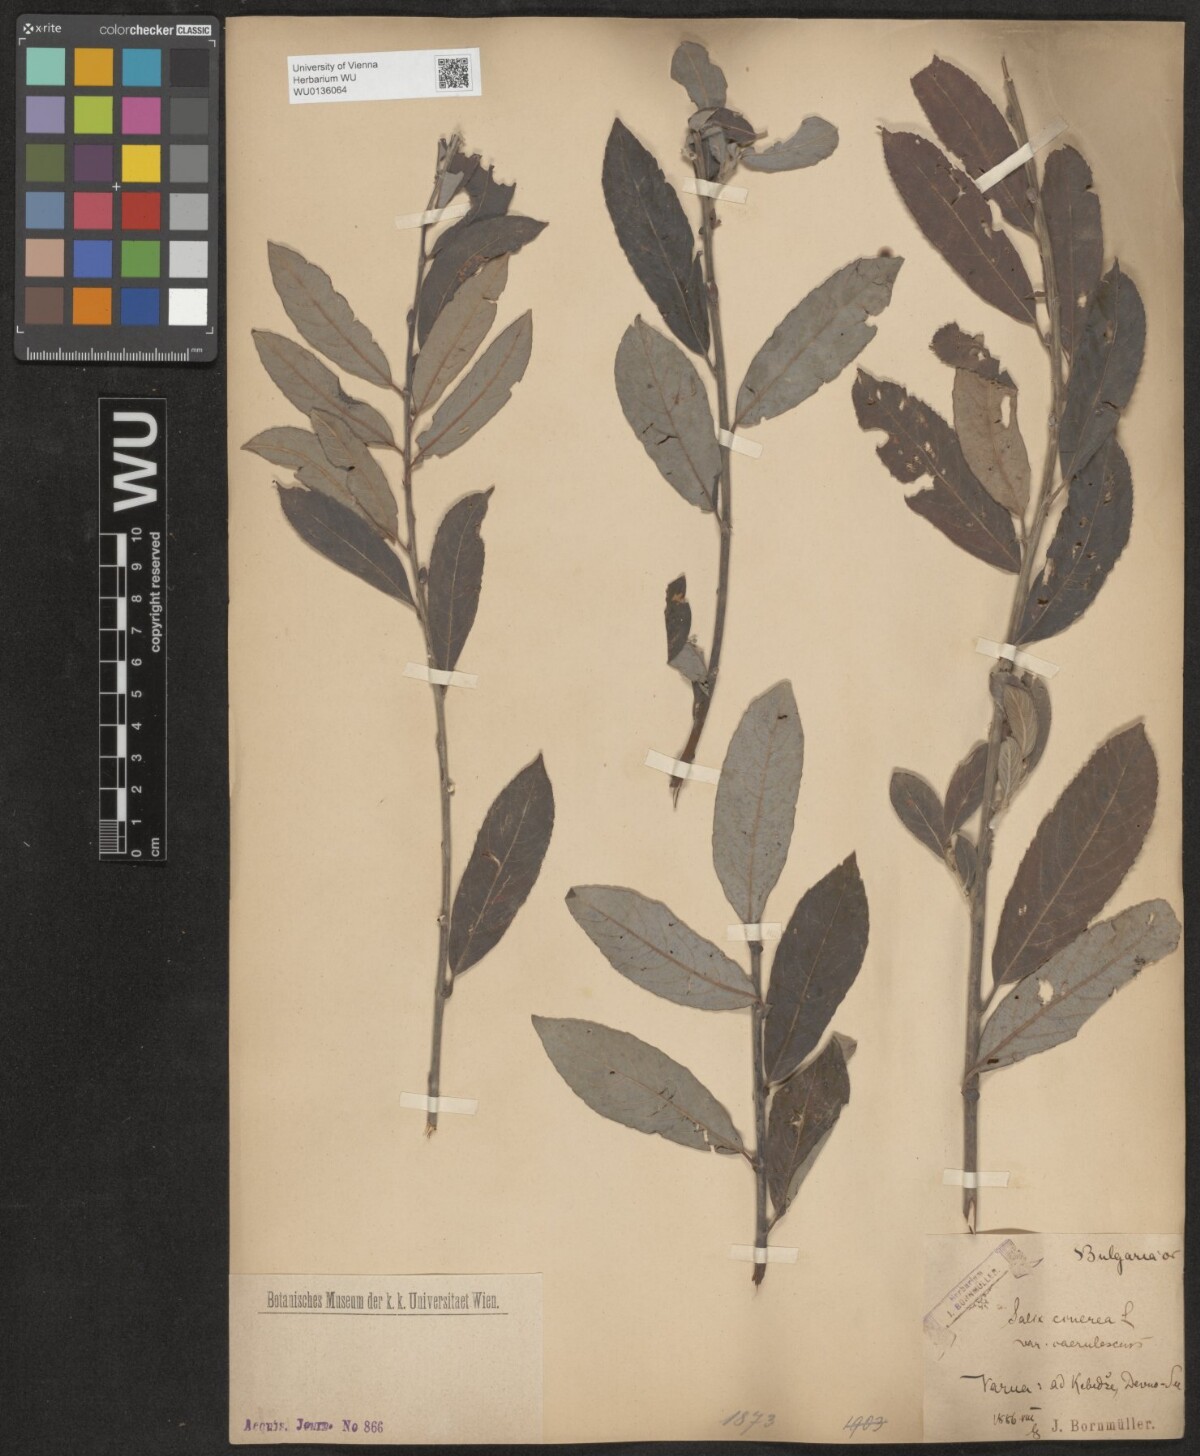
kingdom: Plantae
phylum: Tracheophyta
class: Magnoliopsida
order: Malpighiales
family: Salicaceae
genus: Salix
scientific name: Salix cinerea
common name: Common sallow
